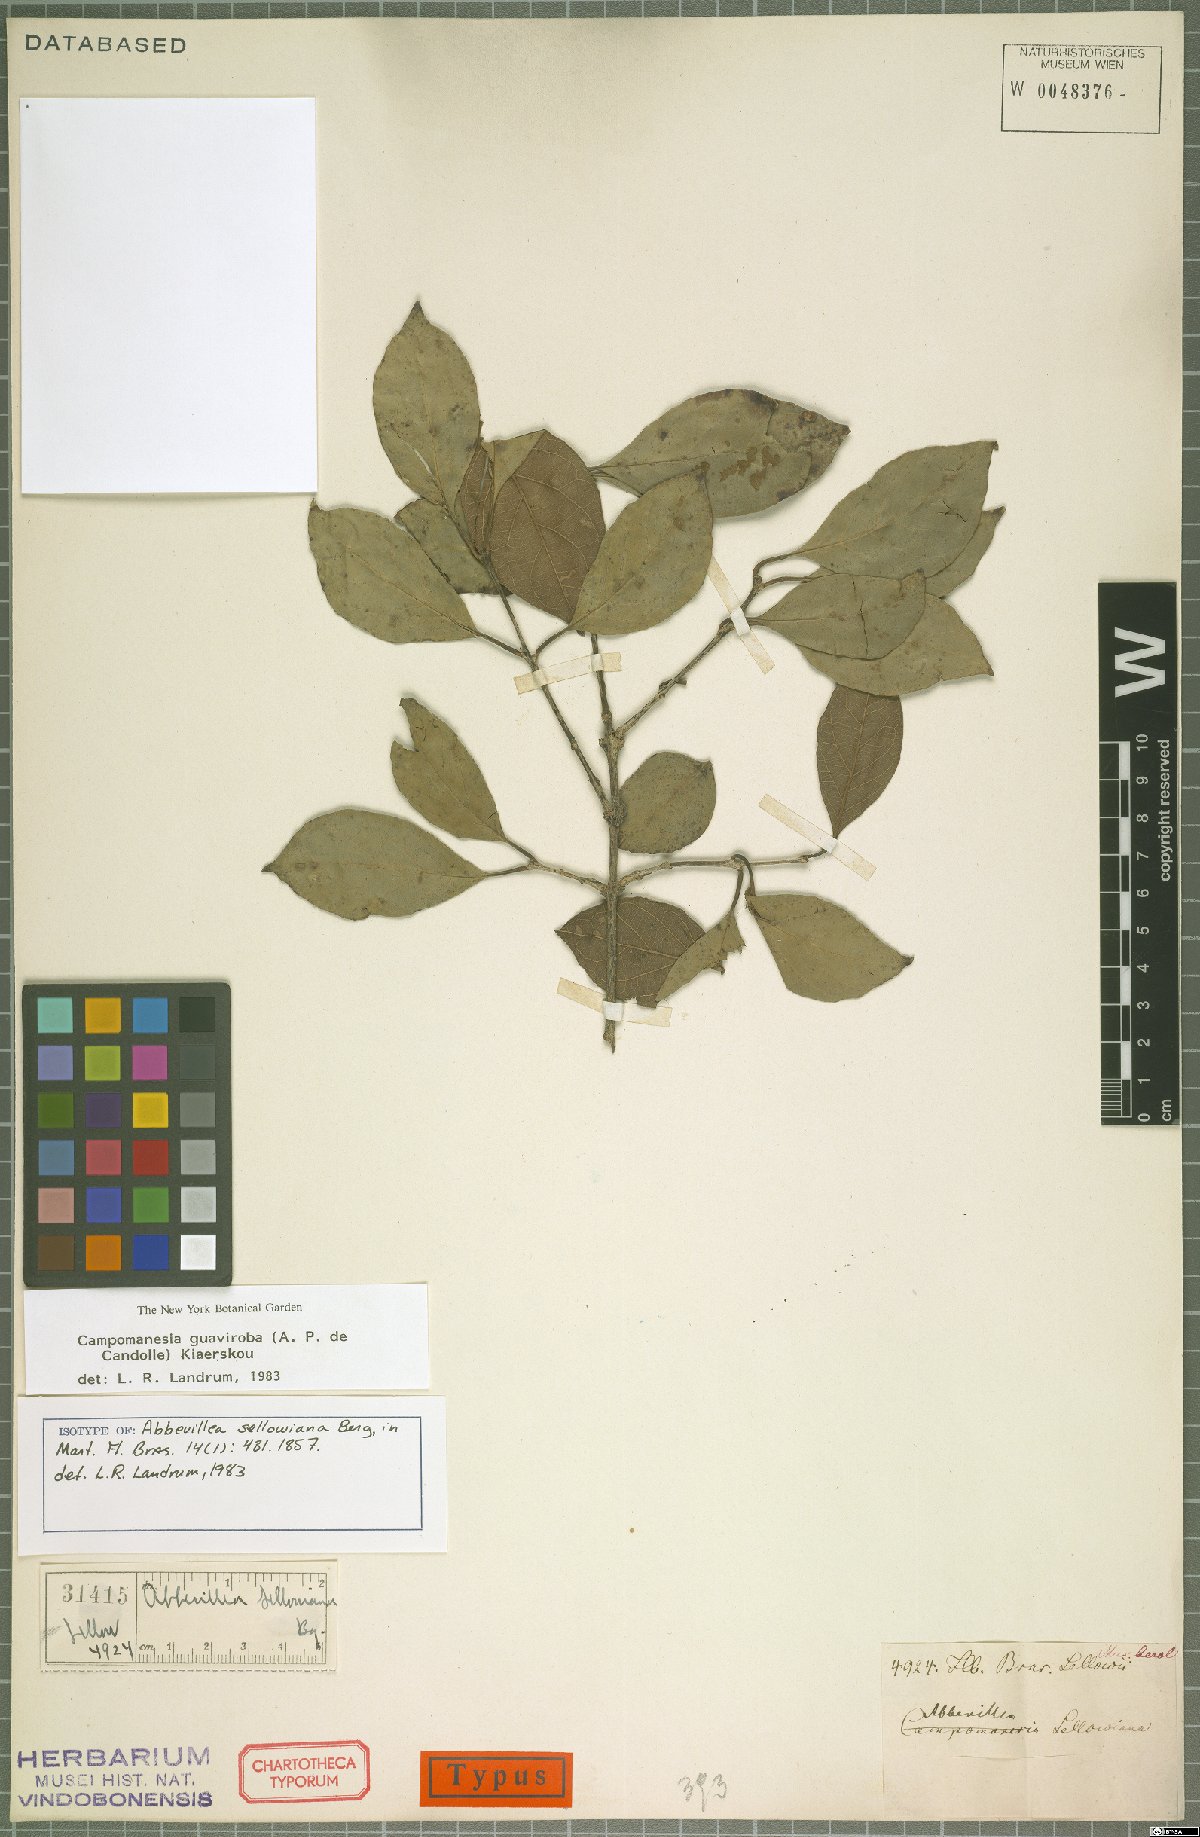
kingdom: Plantae
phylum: Tracheophyta
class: Magnoliopsida
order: Myrtales
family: Myrtaceae
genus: Campomanesia
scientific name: Campomanesia guaviroba
